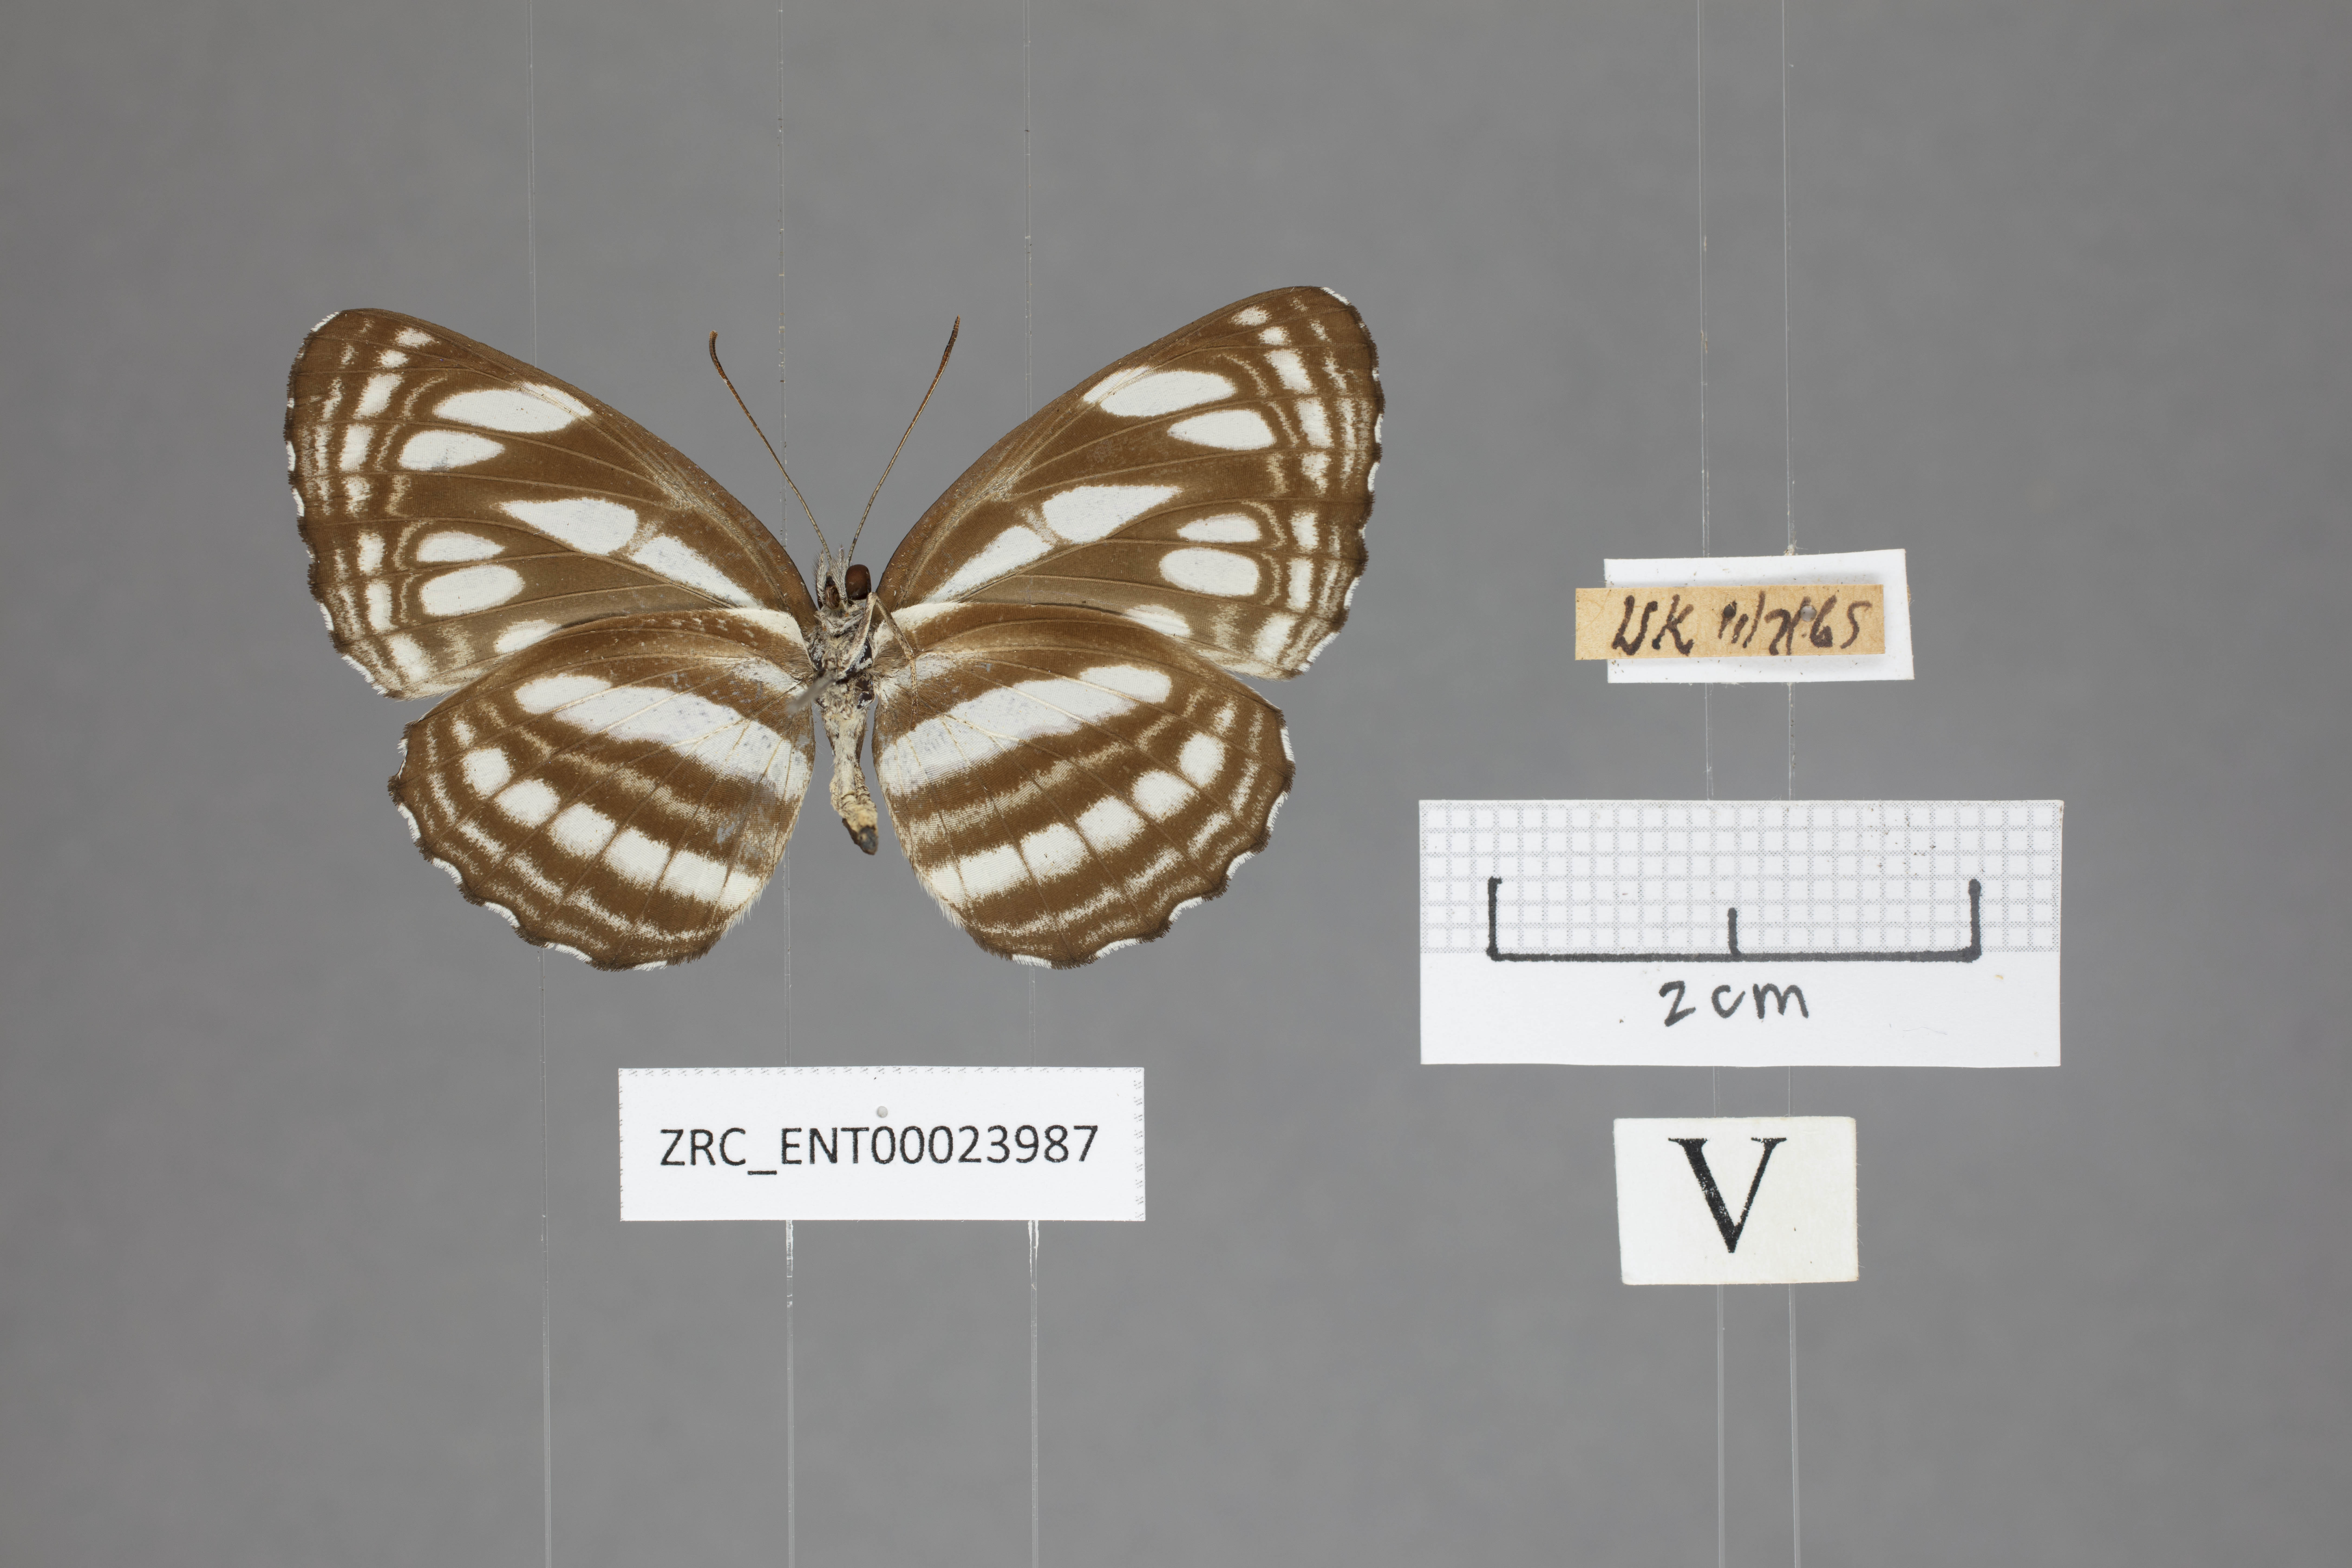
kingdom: Animalia
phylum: Arthropoda
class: Insecta
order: Lepidoptera
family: Nymphalidae
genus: Neptis
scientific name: Neptis duryodana
